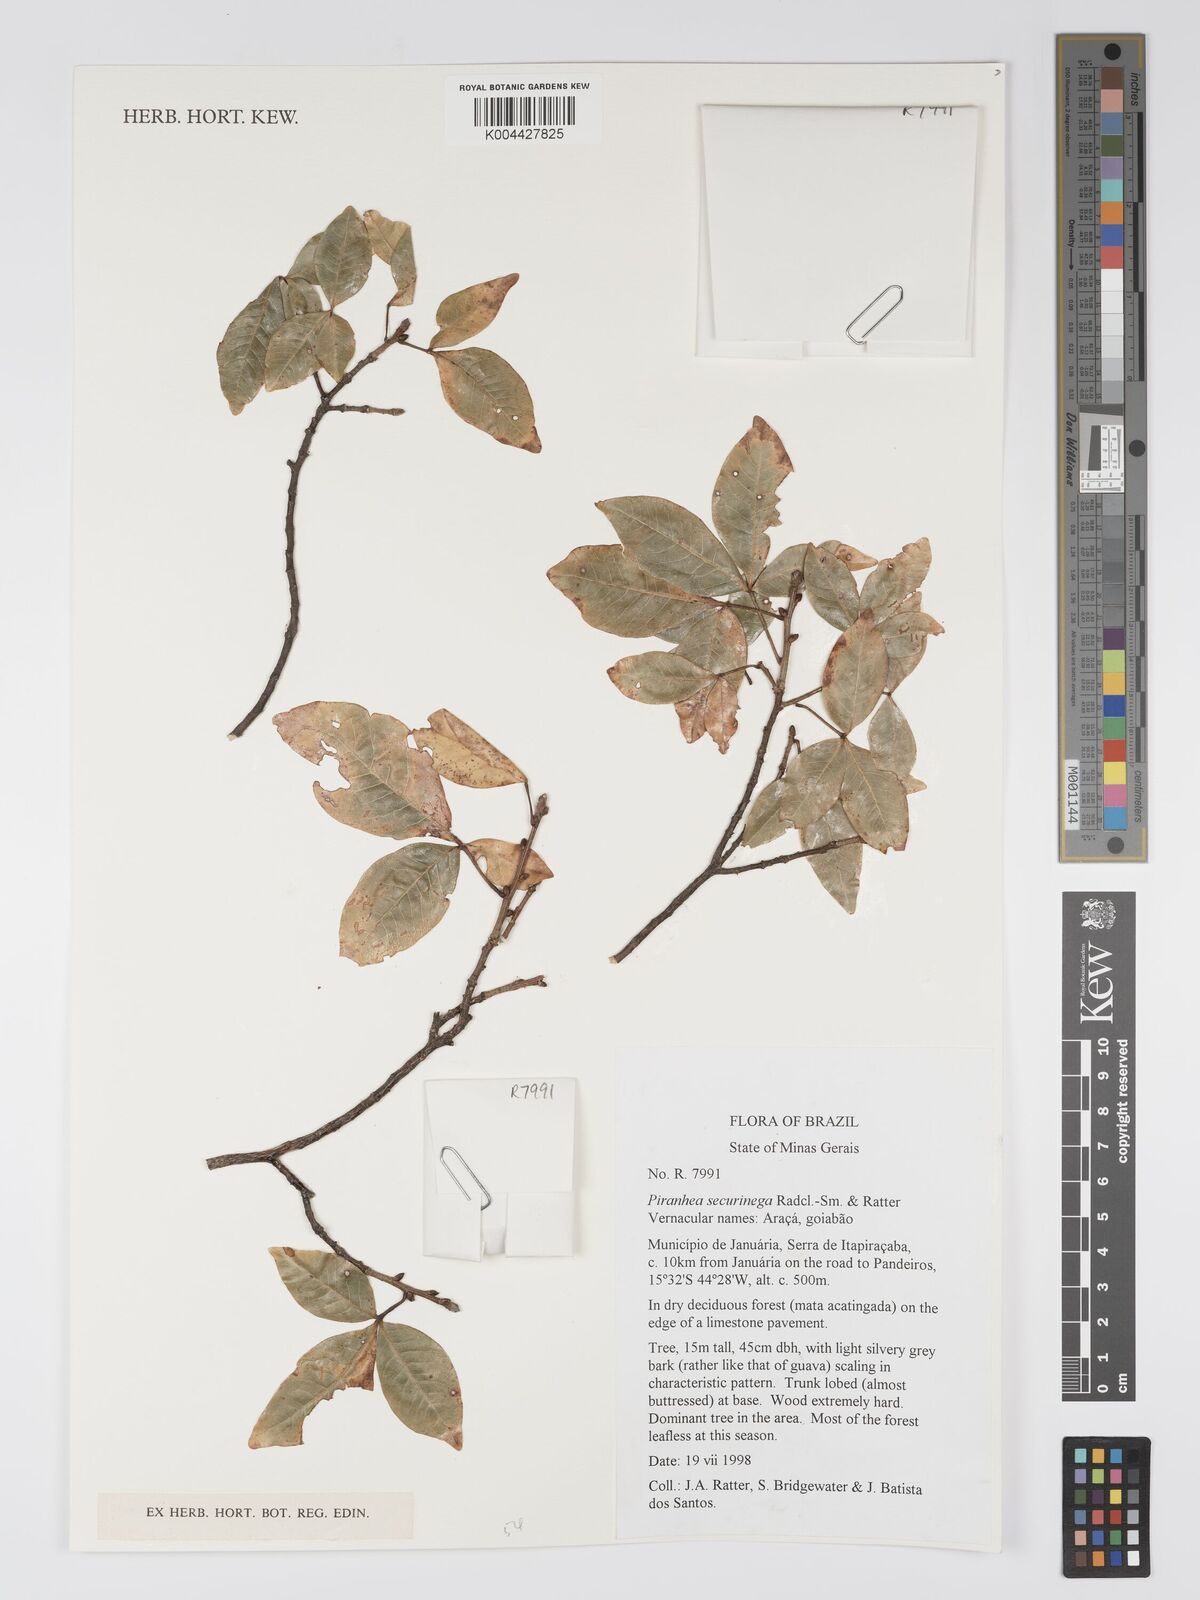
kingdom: Plantae
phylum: Tracheophyta
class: Magnoliopsida
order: Malpighiales
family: Picrodendraceae
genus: Piranhea
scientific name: Piranhea securinega
